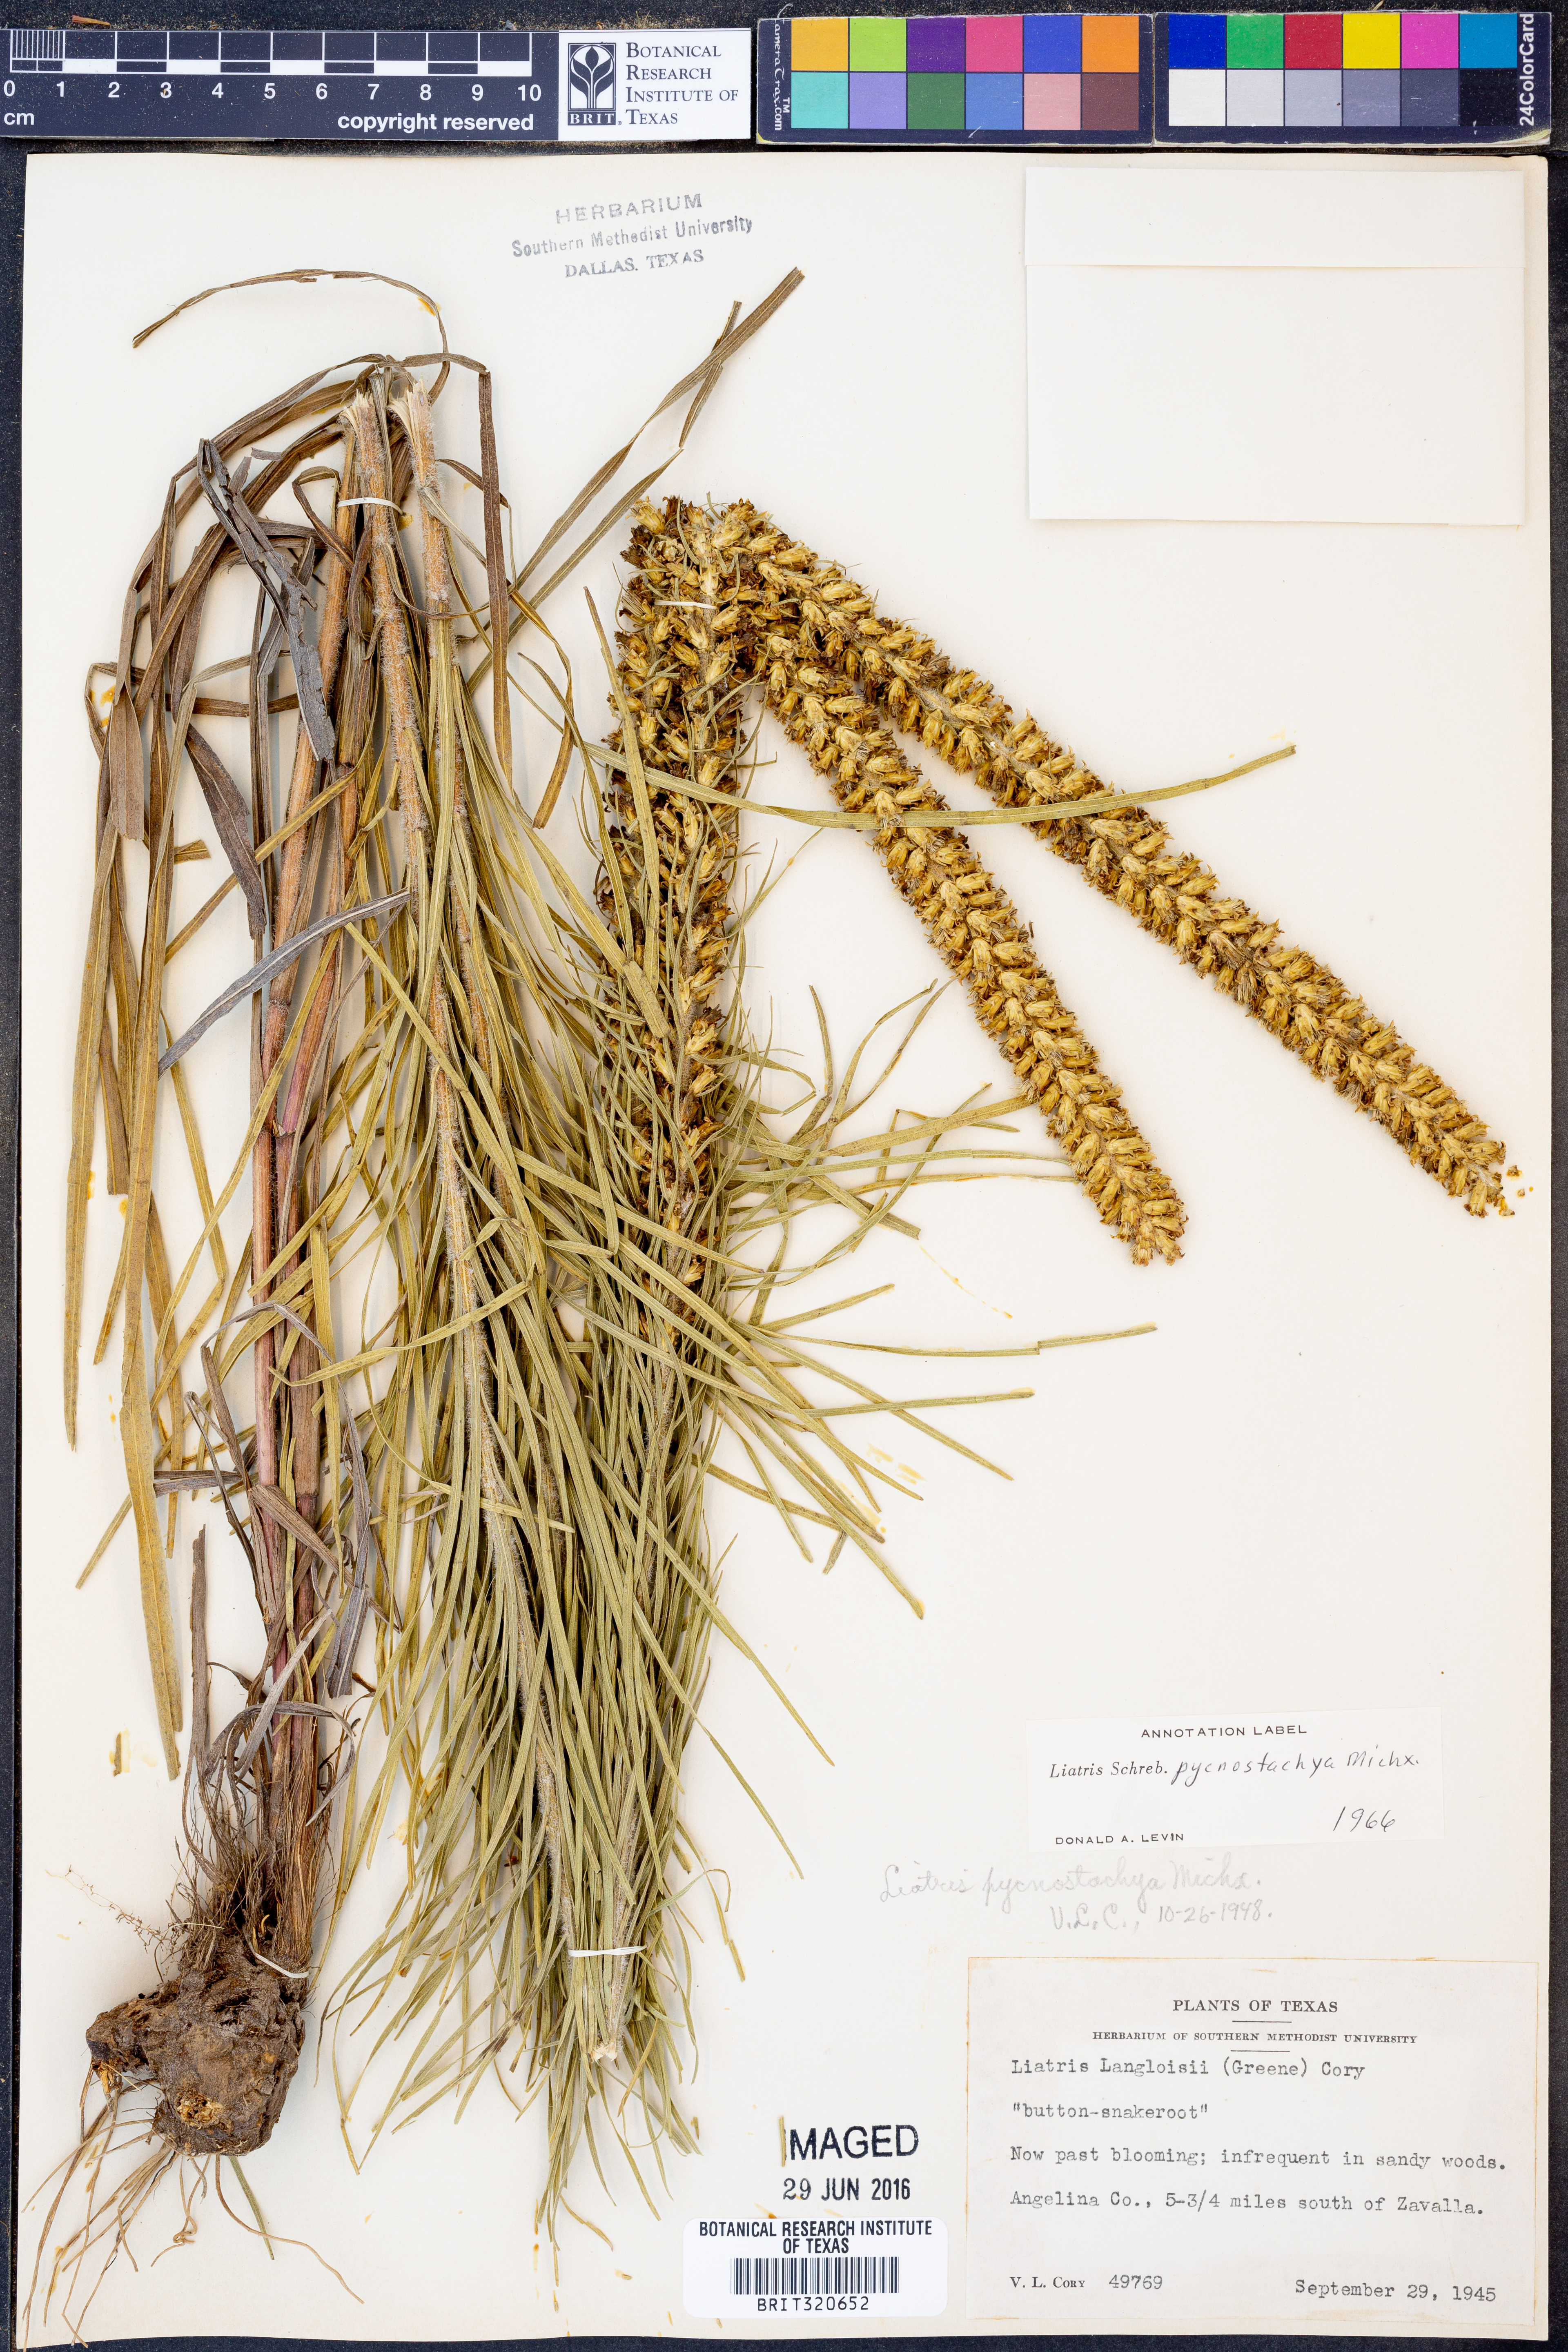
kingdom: Plantae
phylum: Tracheophyta
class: Magnoliopsida
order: Asterales
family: Asteraceae
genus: Liatris
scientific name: Liatris pycnostachya
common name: Cattail gayfeather
